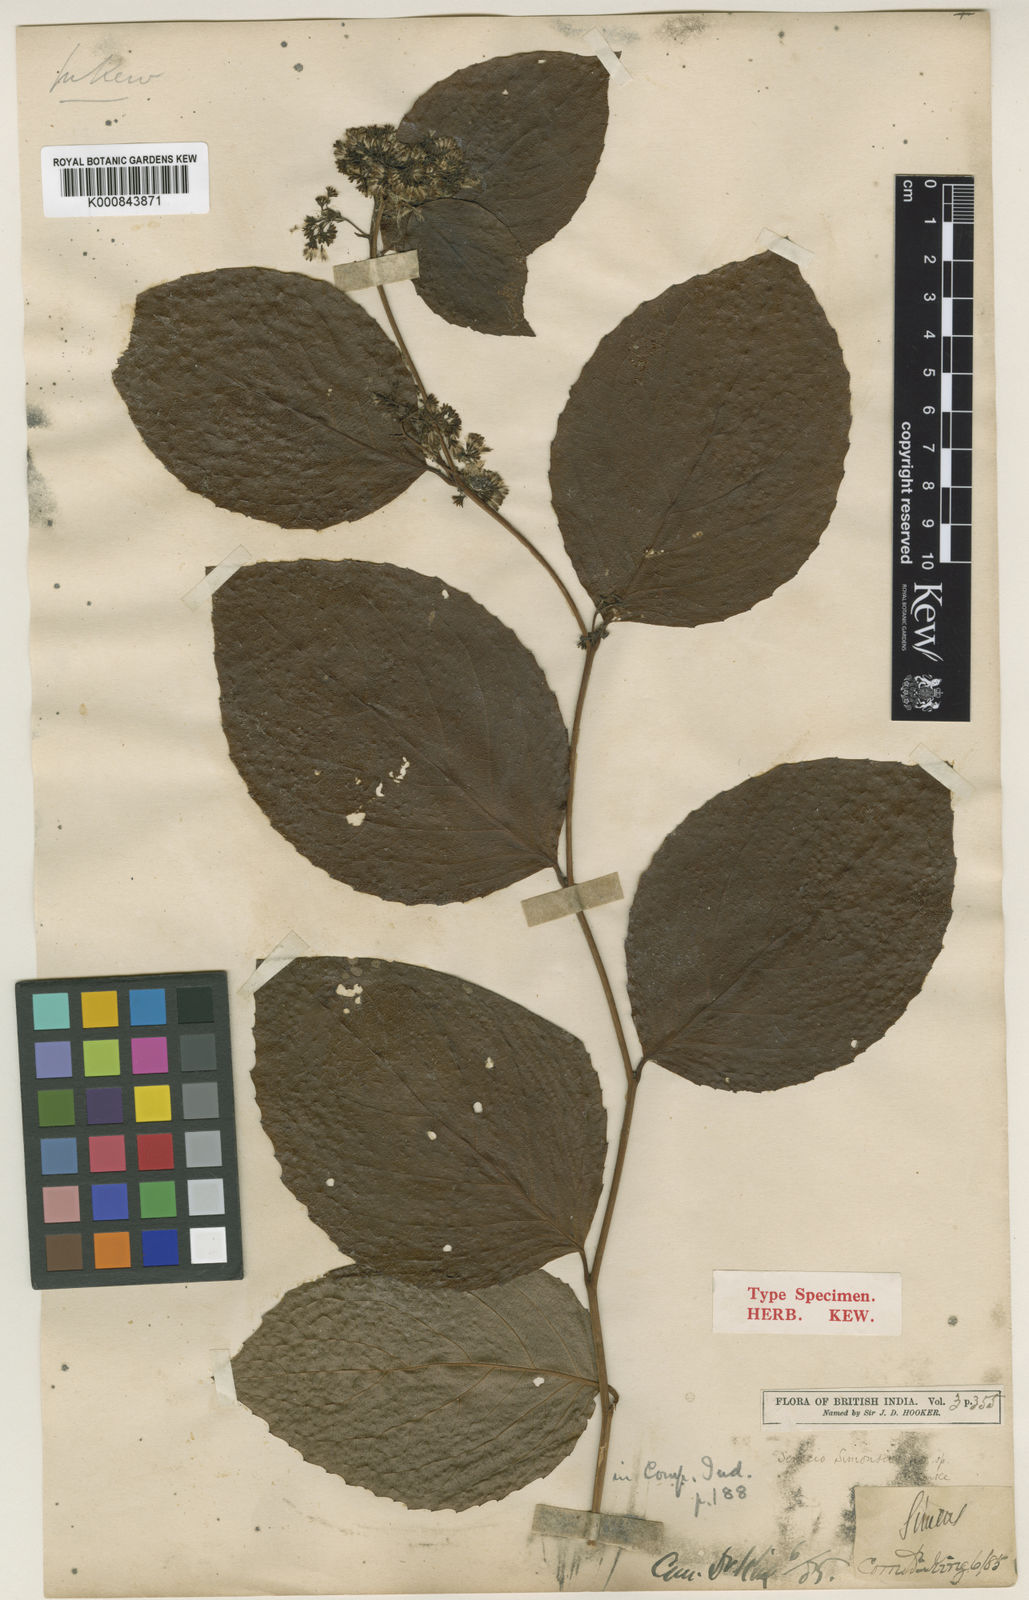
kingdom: Plantae
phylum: Tracheophyta
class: Magnoliopsida
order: Asterales
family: Asteraceae
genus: Synotis
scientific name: Synotis simonsii
